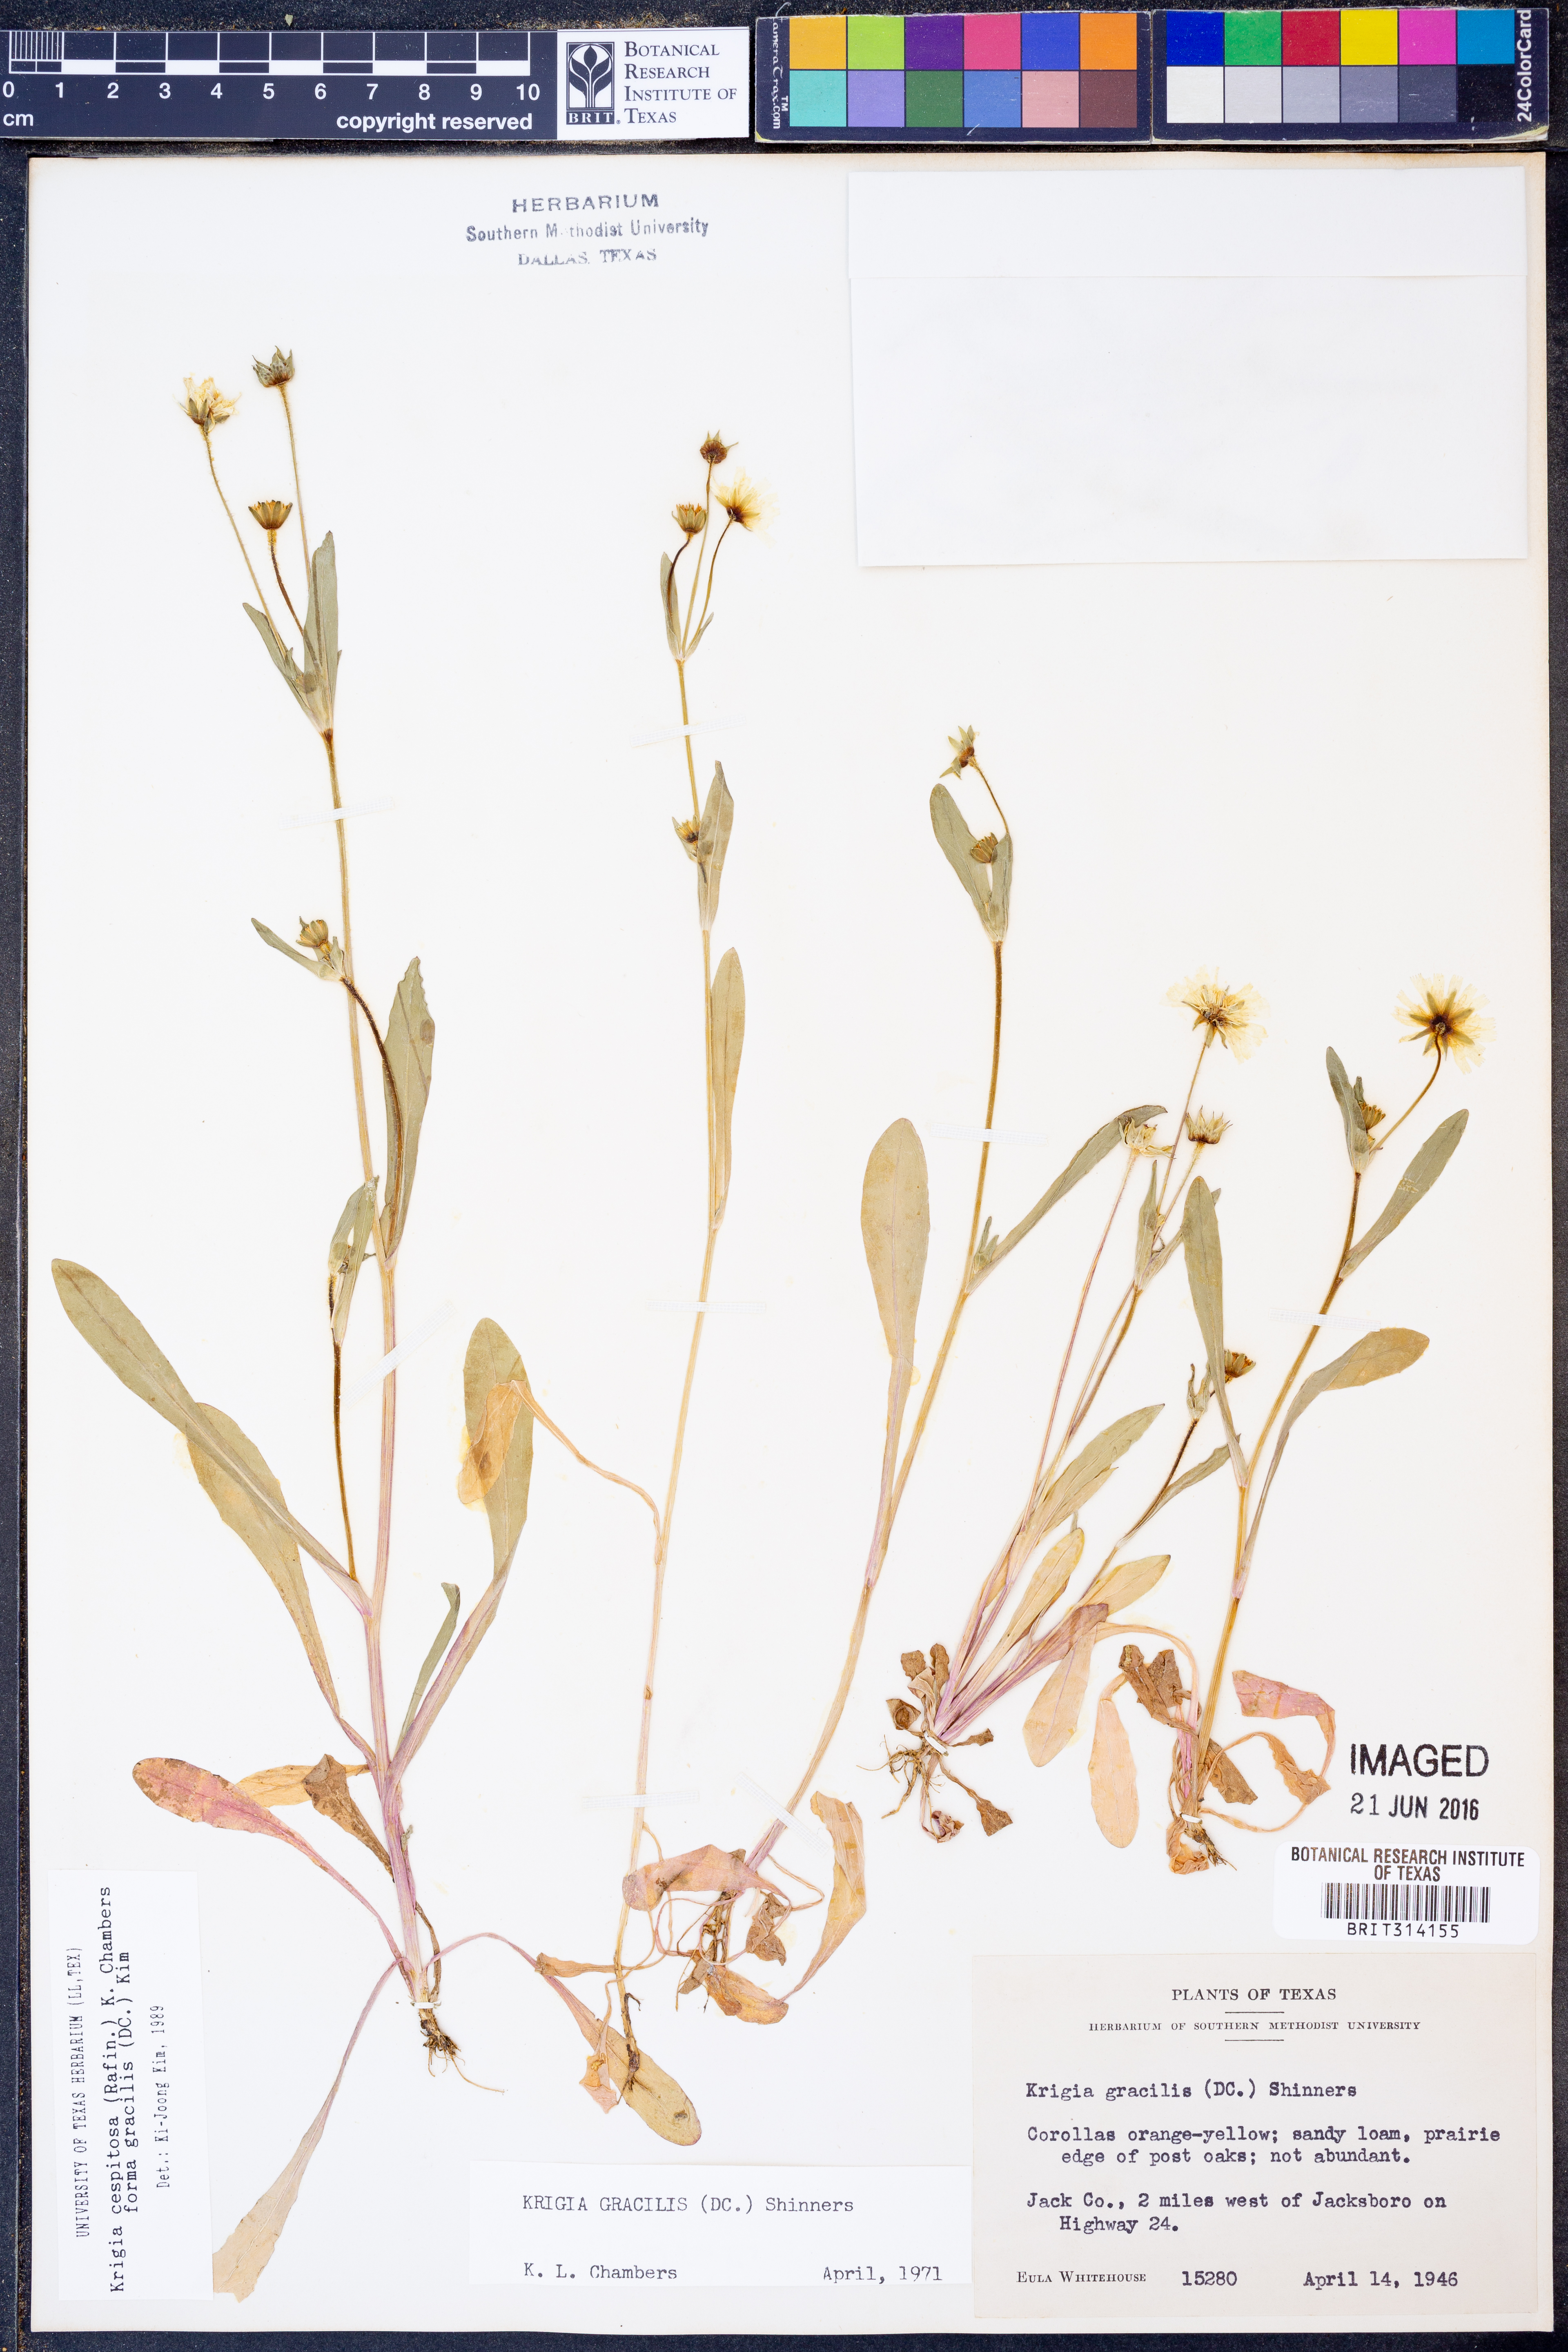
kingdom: Plantae
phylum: Tracheophyta
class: Magnoliopsida
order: Asterales
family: Asteraceae
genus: Krigia
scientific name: Krigia cespitosa
